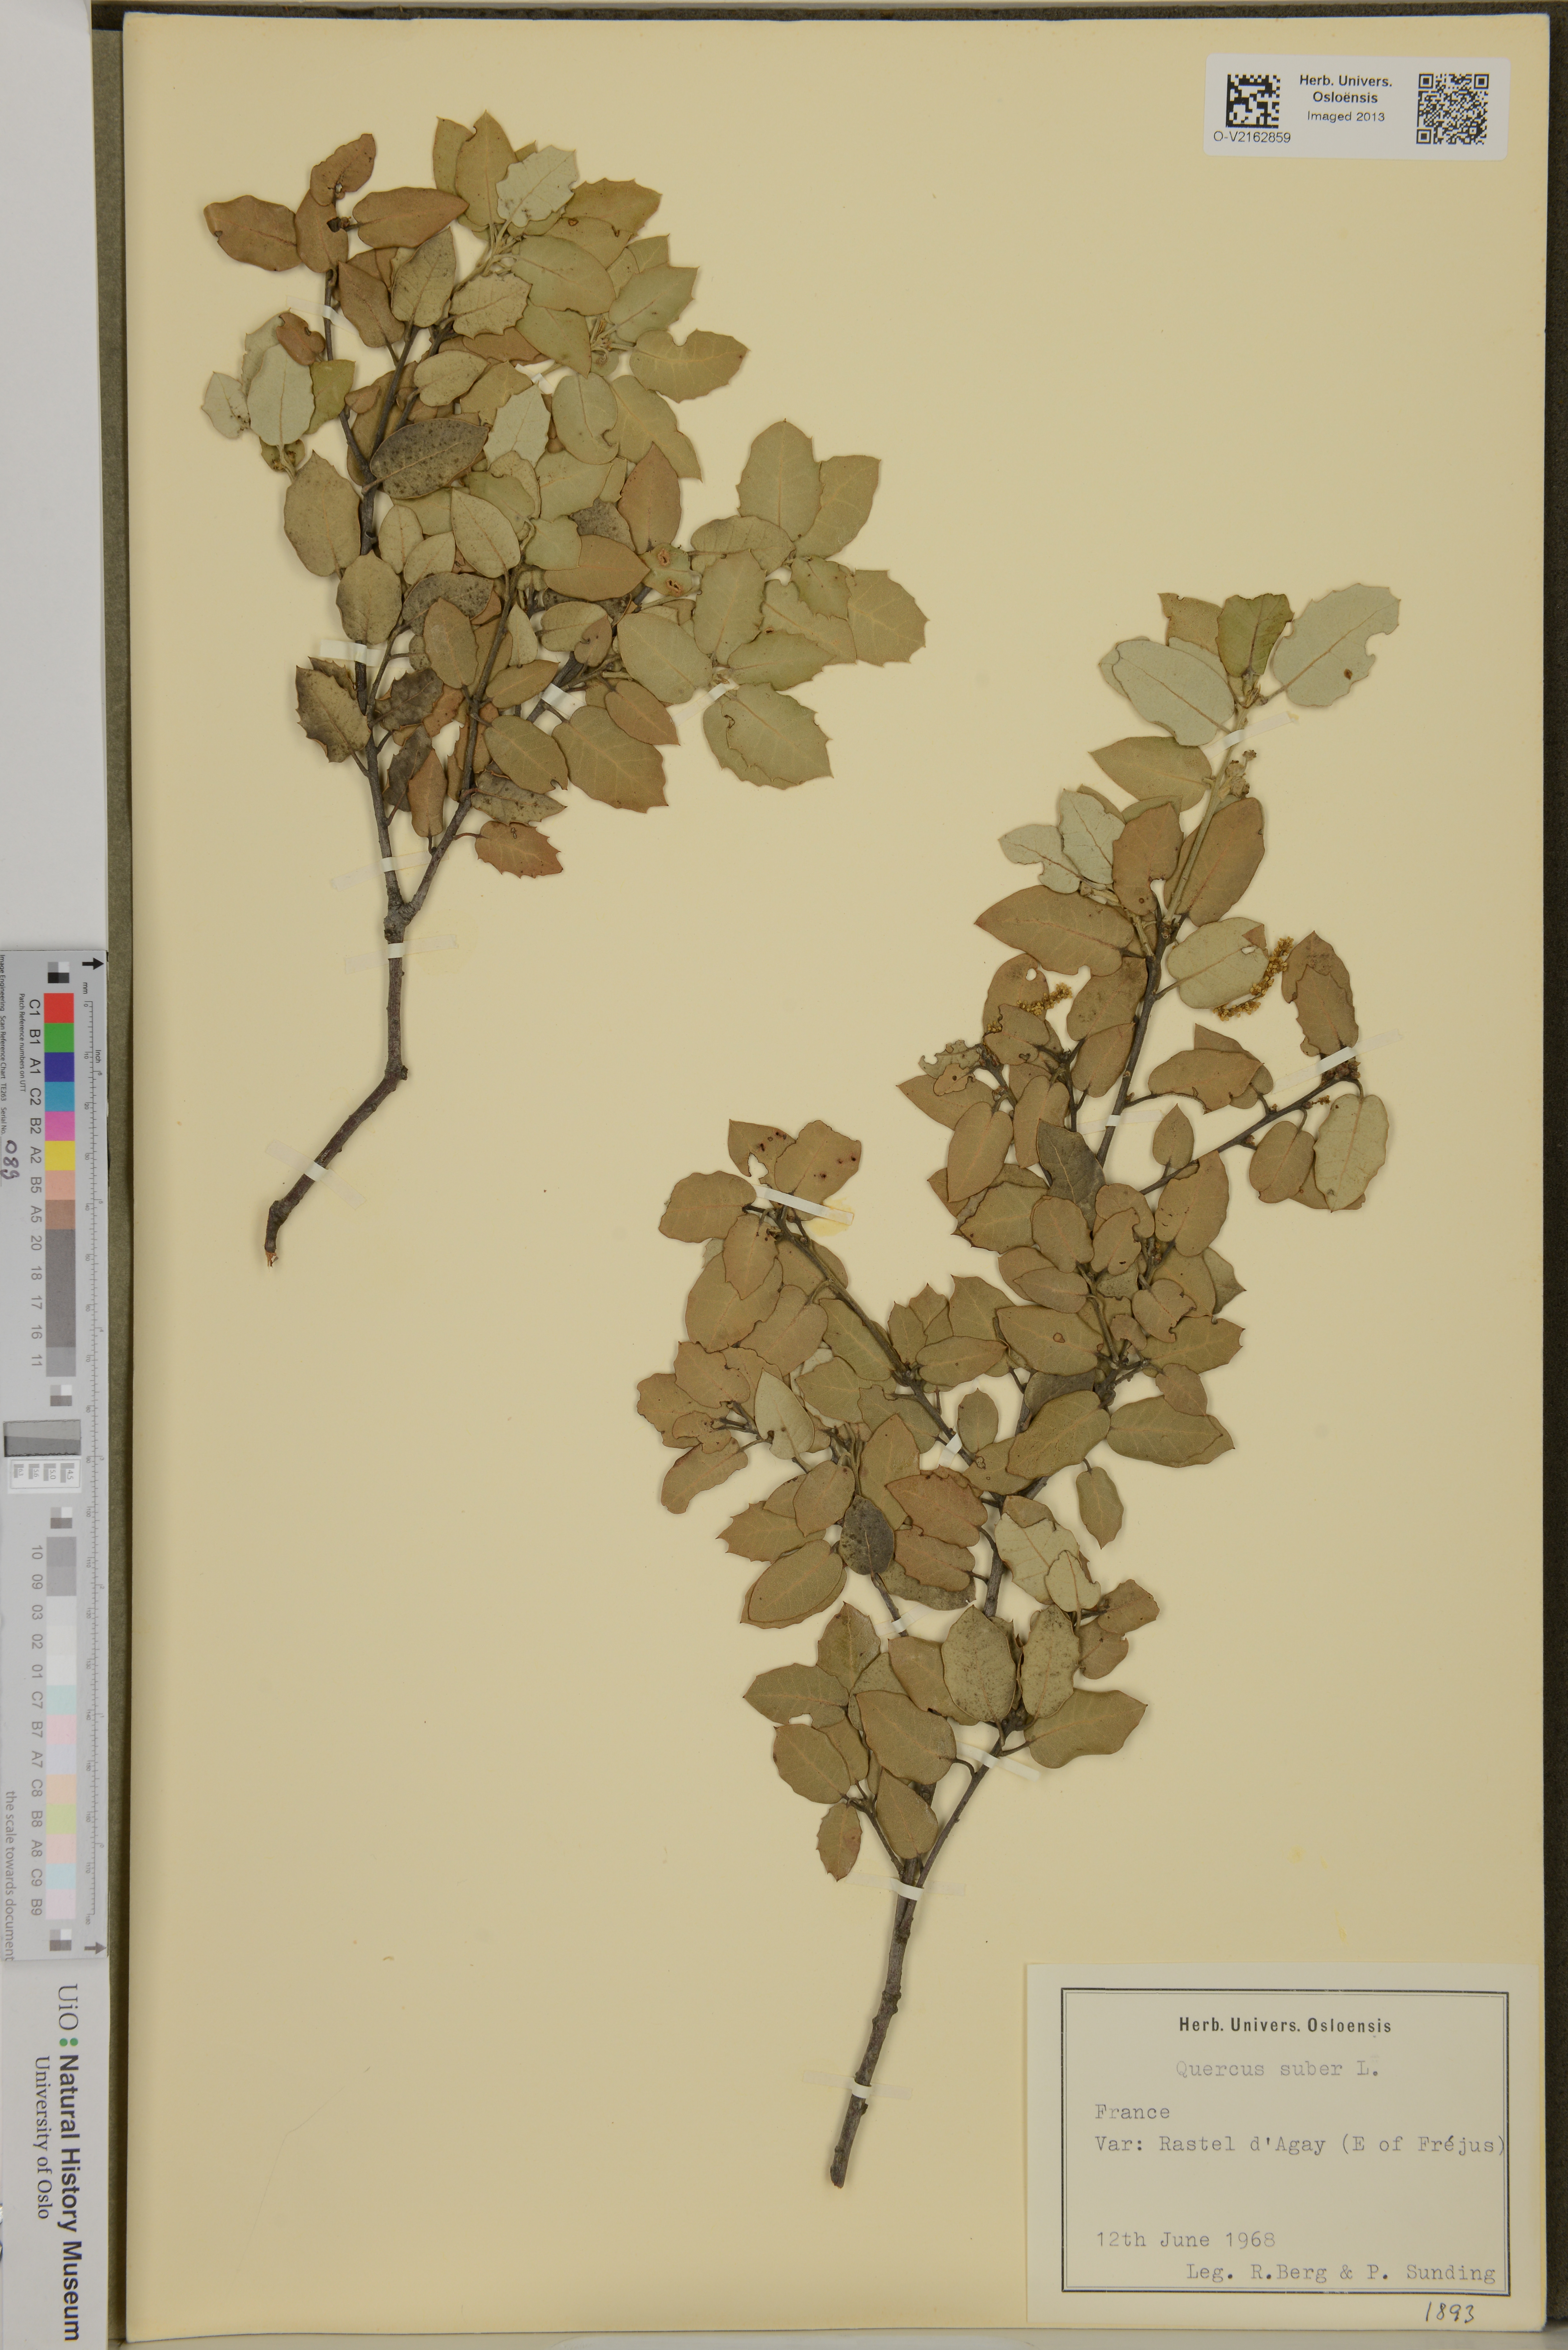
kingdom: Plantae
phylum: Tracheophyta
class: Magnoliopsida
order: Fagales
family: Fagaceae
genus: Quercus
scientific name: Quercus suber
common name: Cork oak
